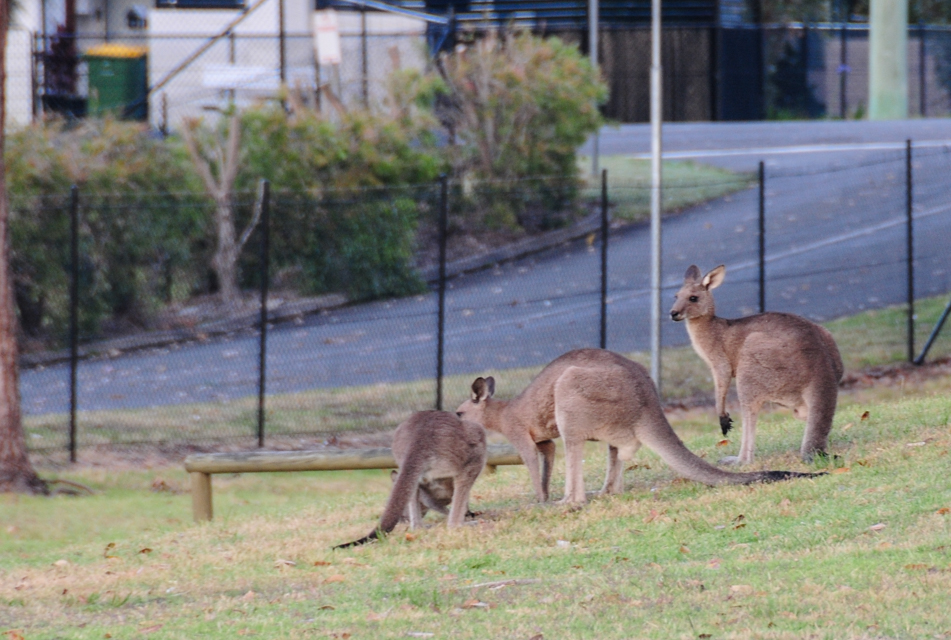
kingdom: Animalia
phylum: Chordata
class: Mammalia
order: Diprotodontia
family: Macropodidae
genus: Macropus
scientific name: Macropus giganteus
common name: Eastern grey kangaroo
